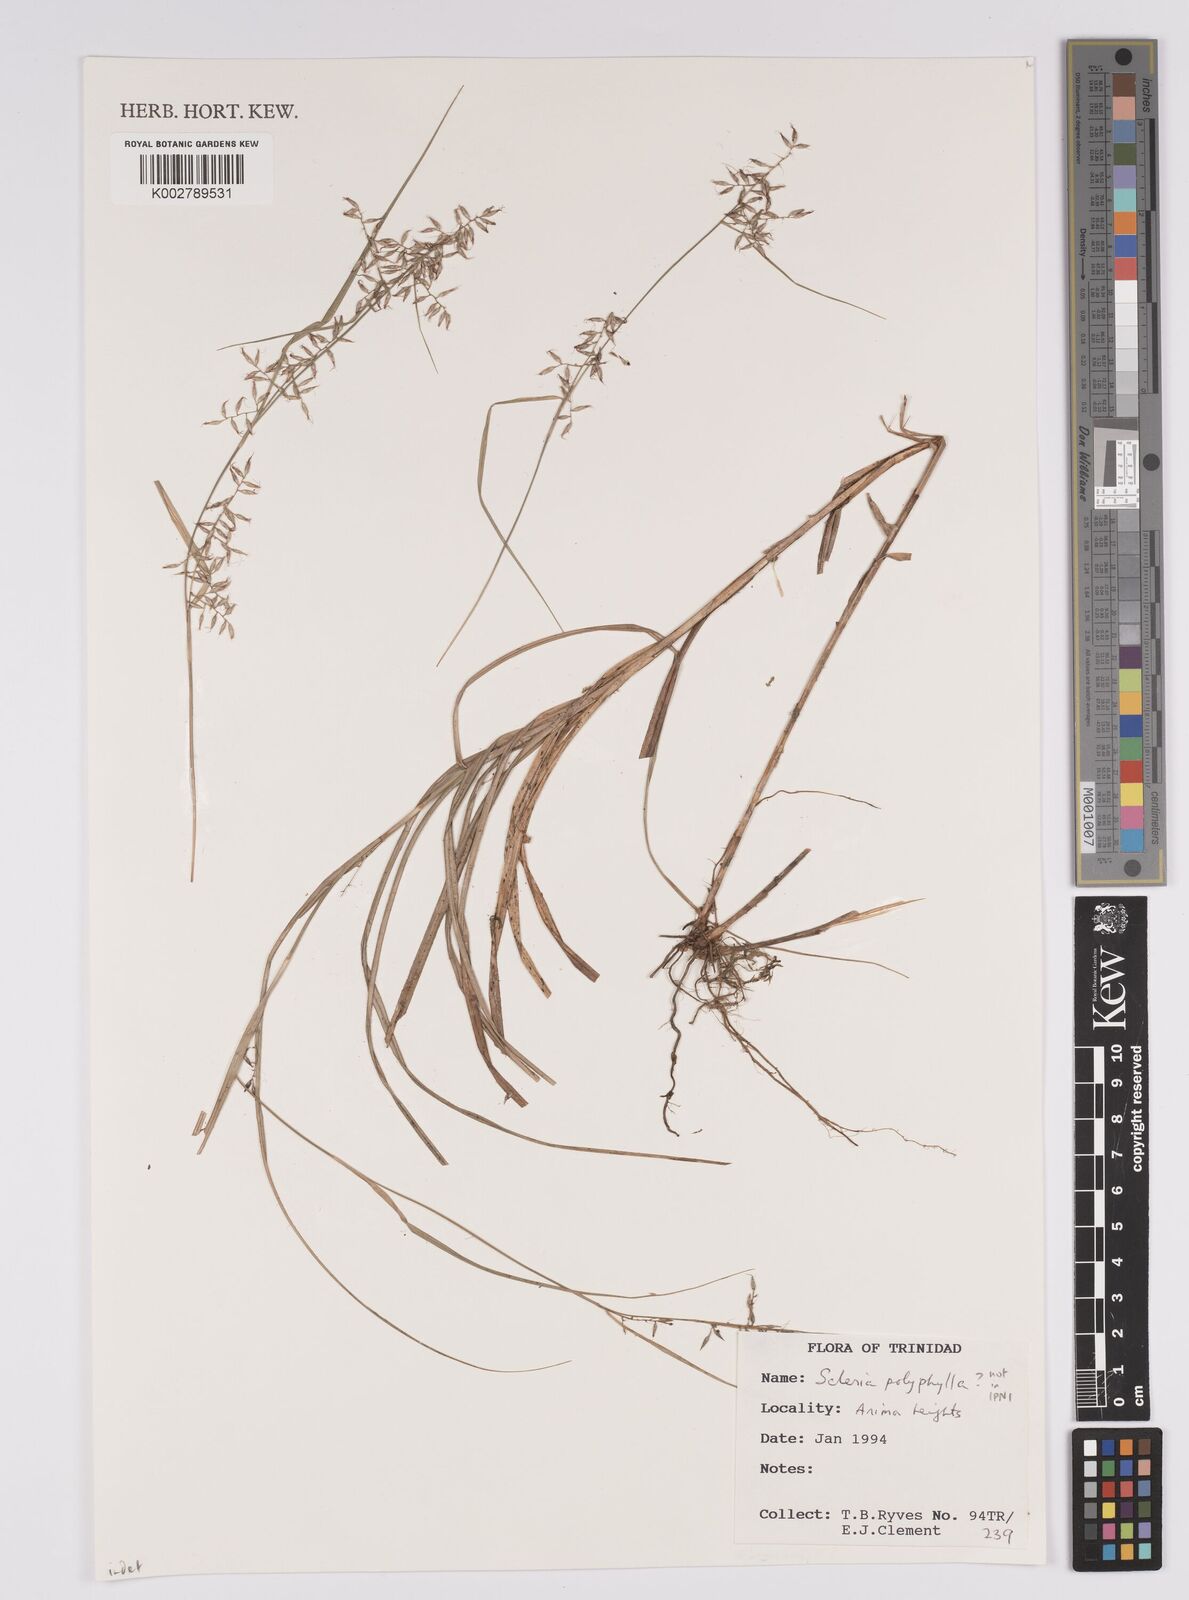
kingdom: Plantae
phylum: Tracheophyta
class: Liliopsida
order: Poales
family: Cyperaceae
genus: Scleria
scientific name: Scleria
